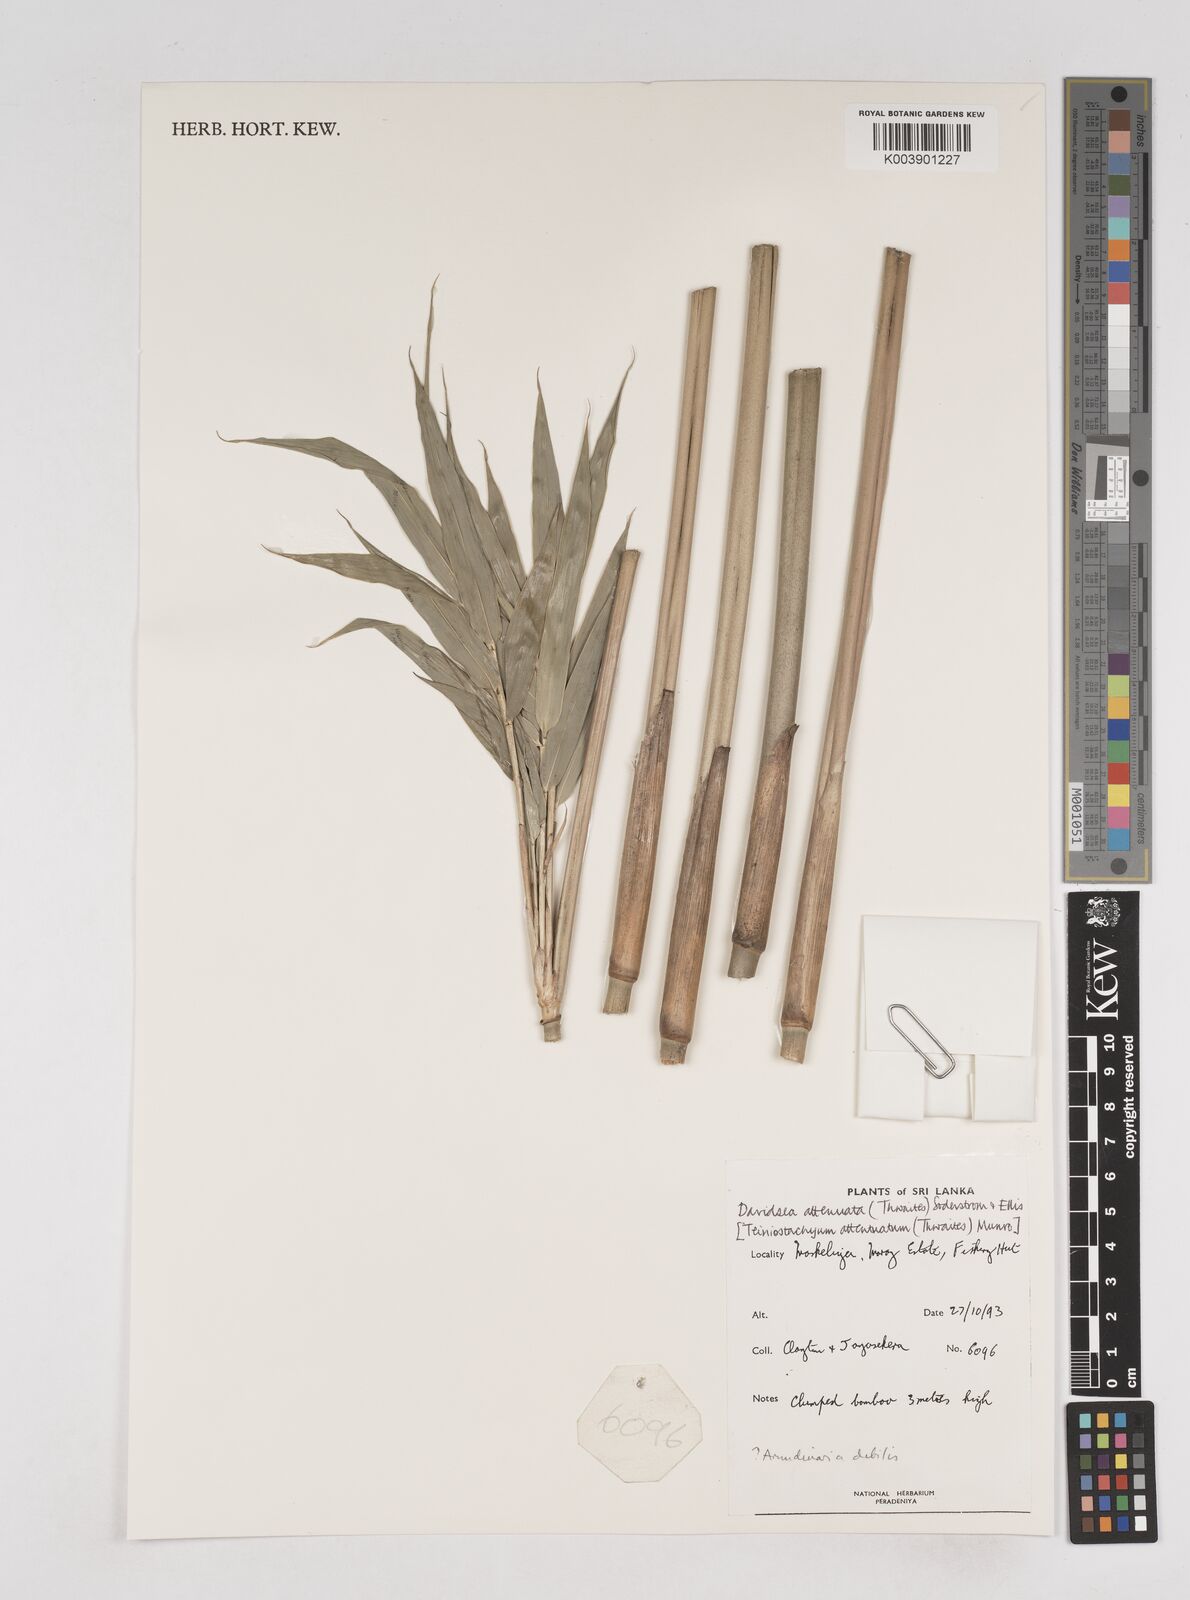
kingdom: Plantae
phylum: Tracheophyta
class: Liliopsida
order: Poales
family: Poaceae
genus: Davidsea
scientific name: Davidsea
